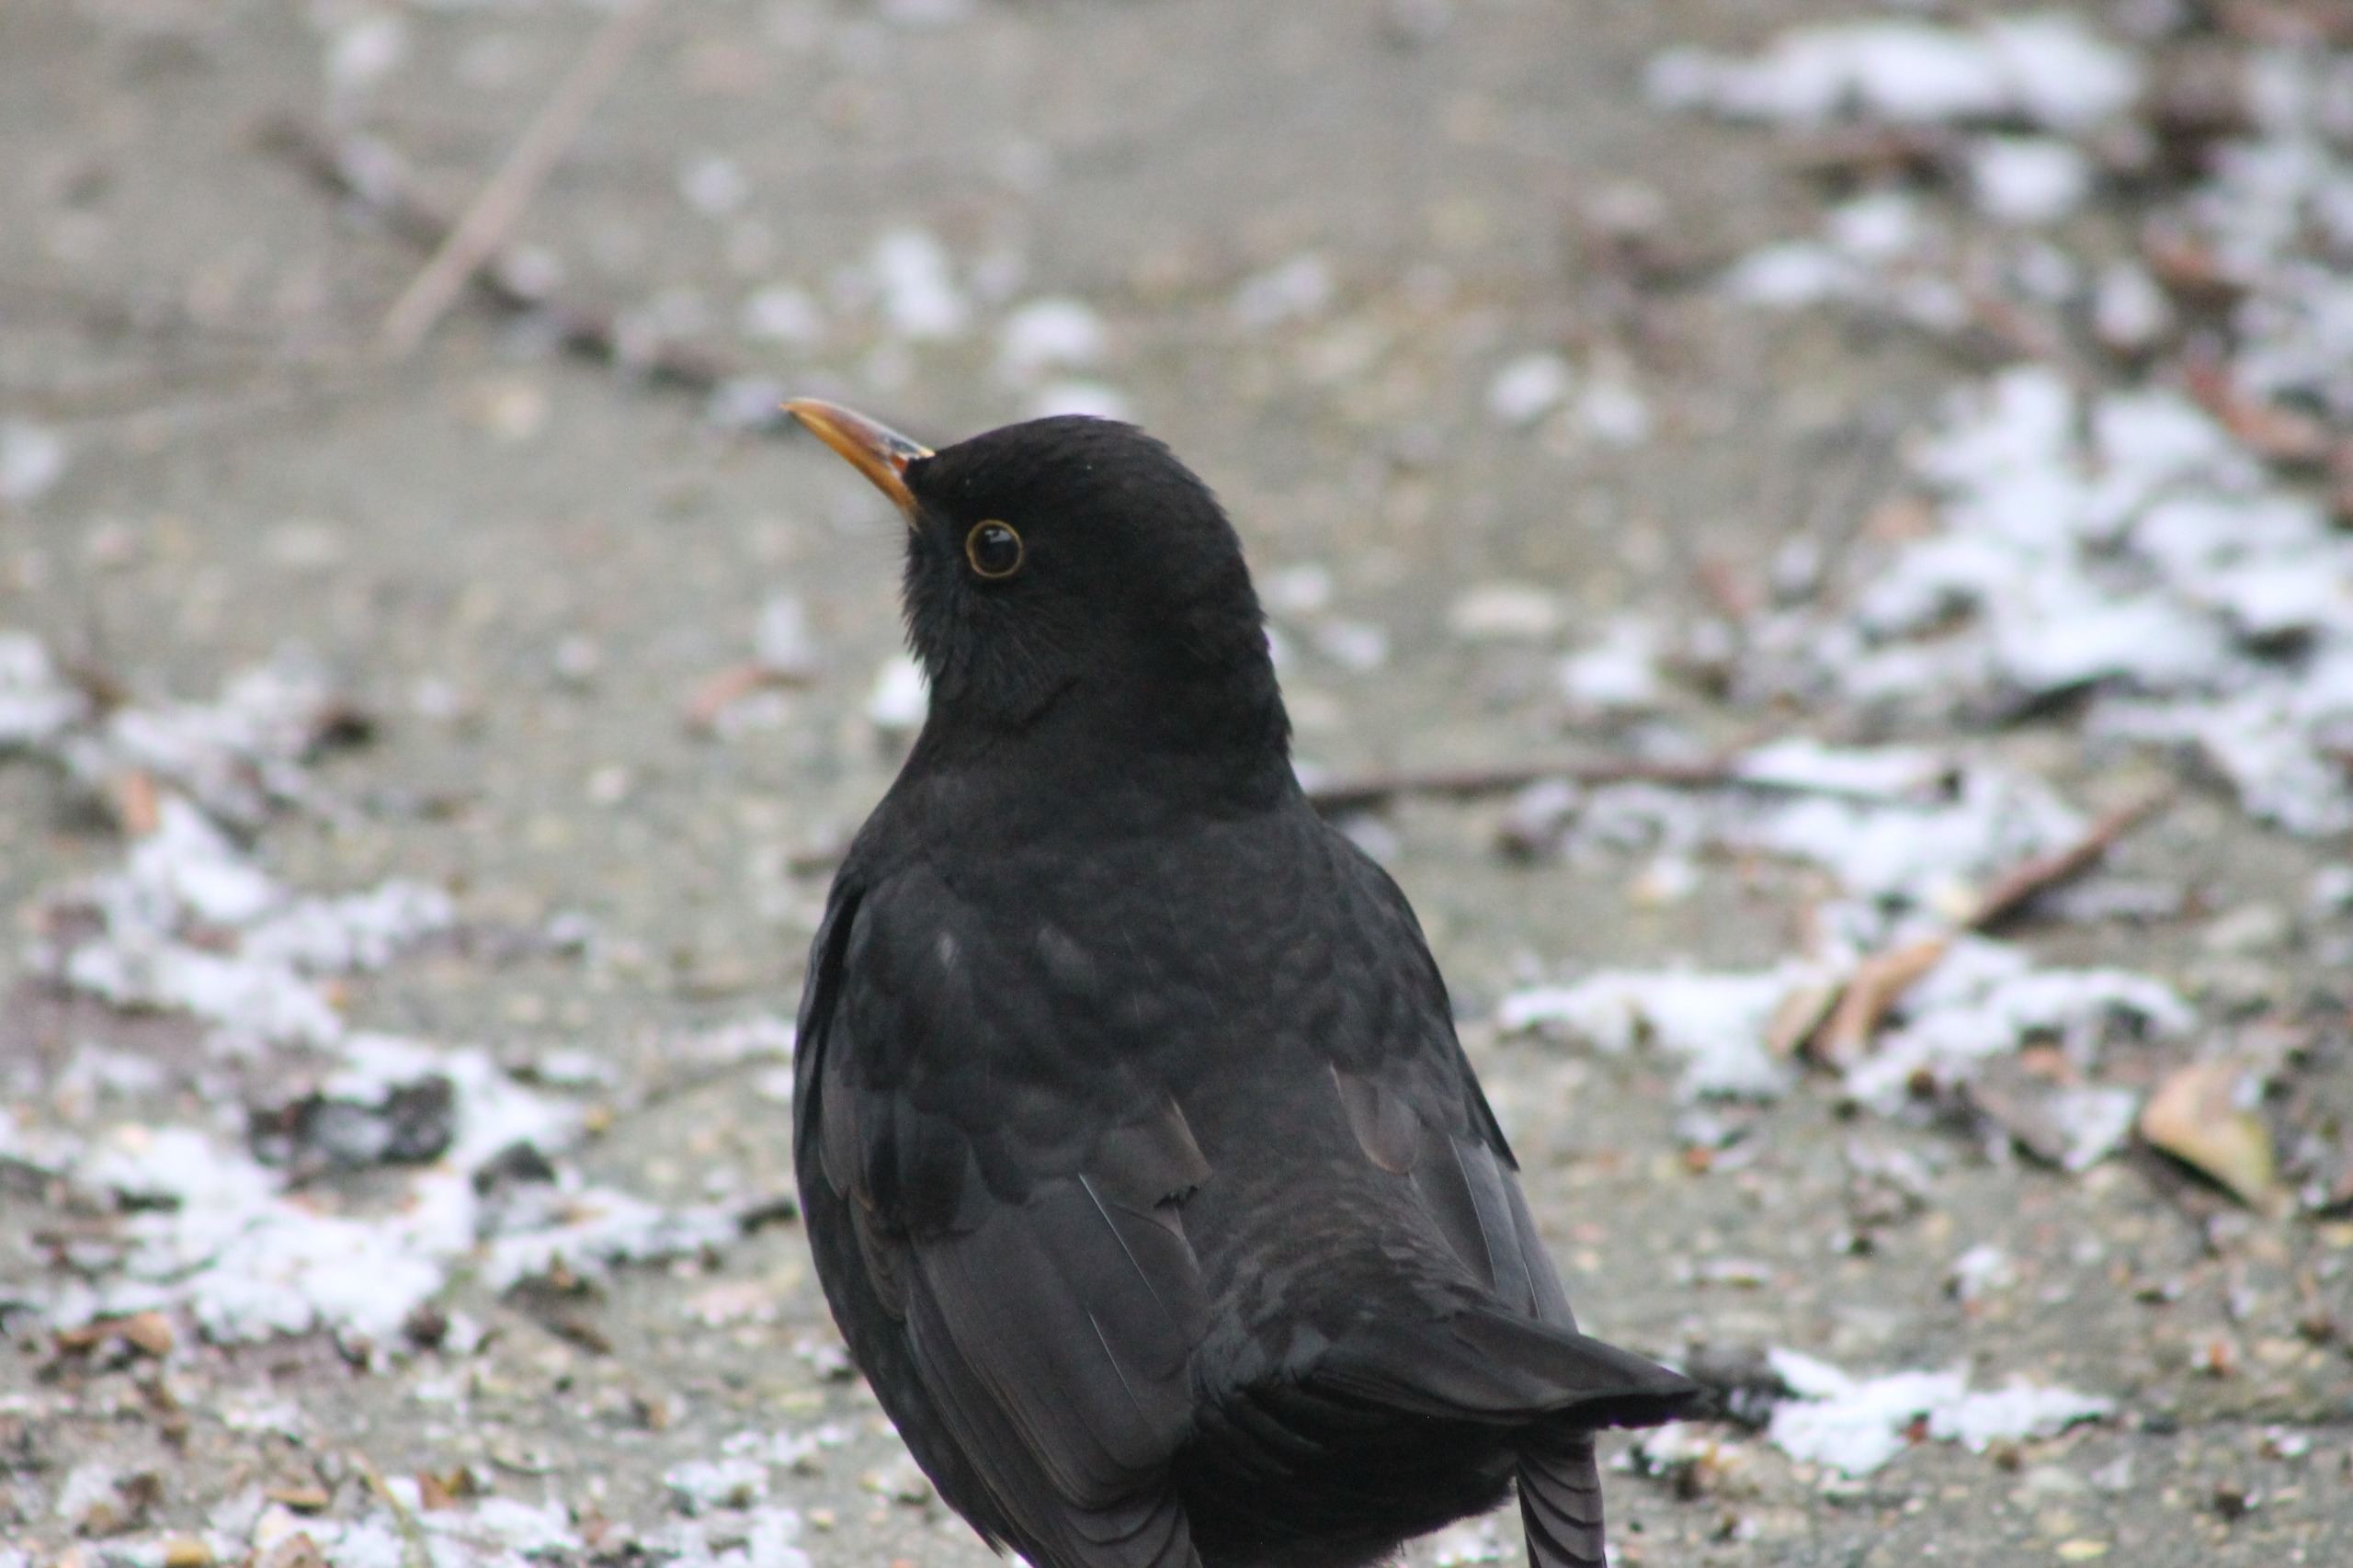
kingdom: Animalia
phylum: Chordata
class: Aves
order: Passeriformes
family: Turdidae
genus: Turdus
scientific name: Turdus merula
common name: Solsort
